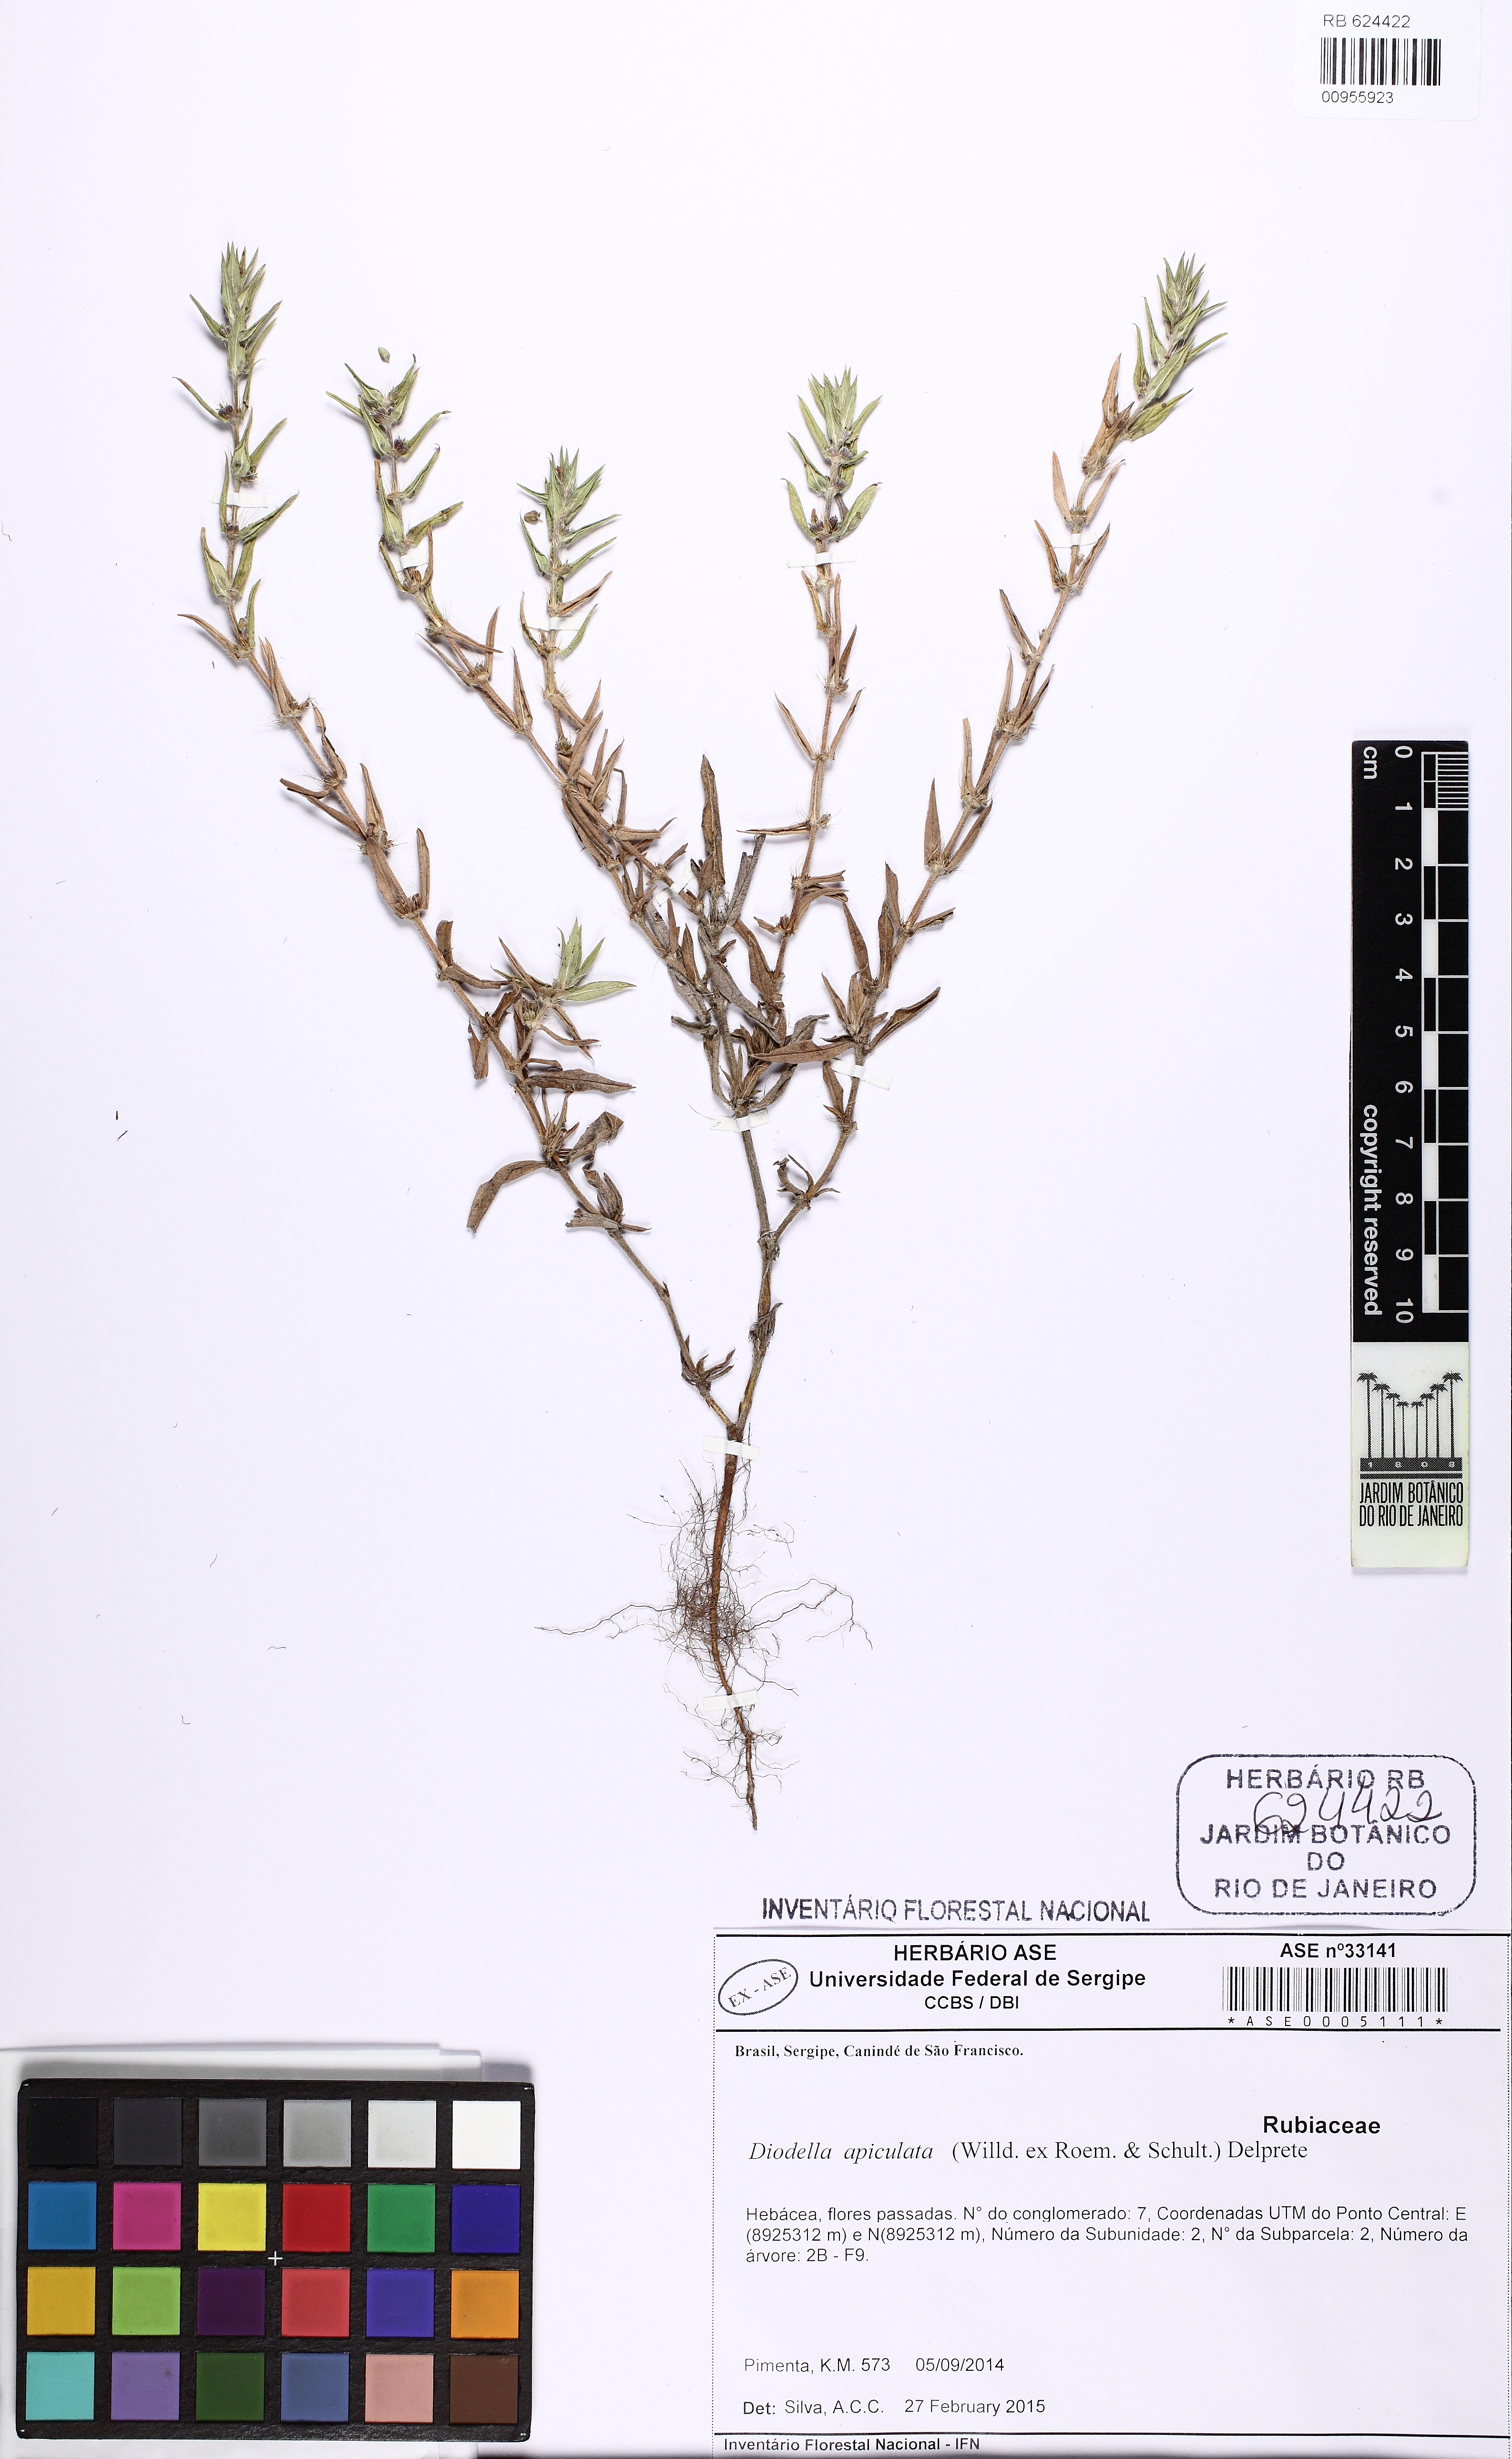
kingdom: Plantae
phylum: Tracheophyta
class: Magnoliopsida
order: Gentianales
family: Rubiaceae
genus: Hexasepalum
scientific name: Hexasepalum apiculatum
